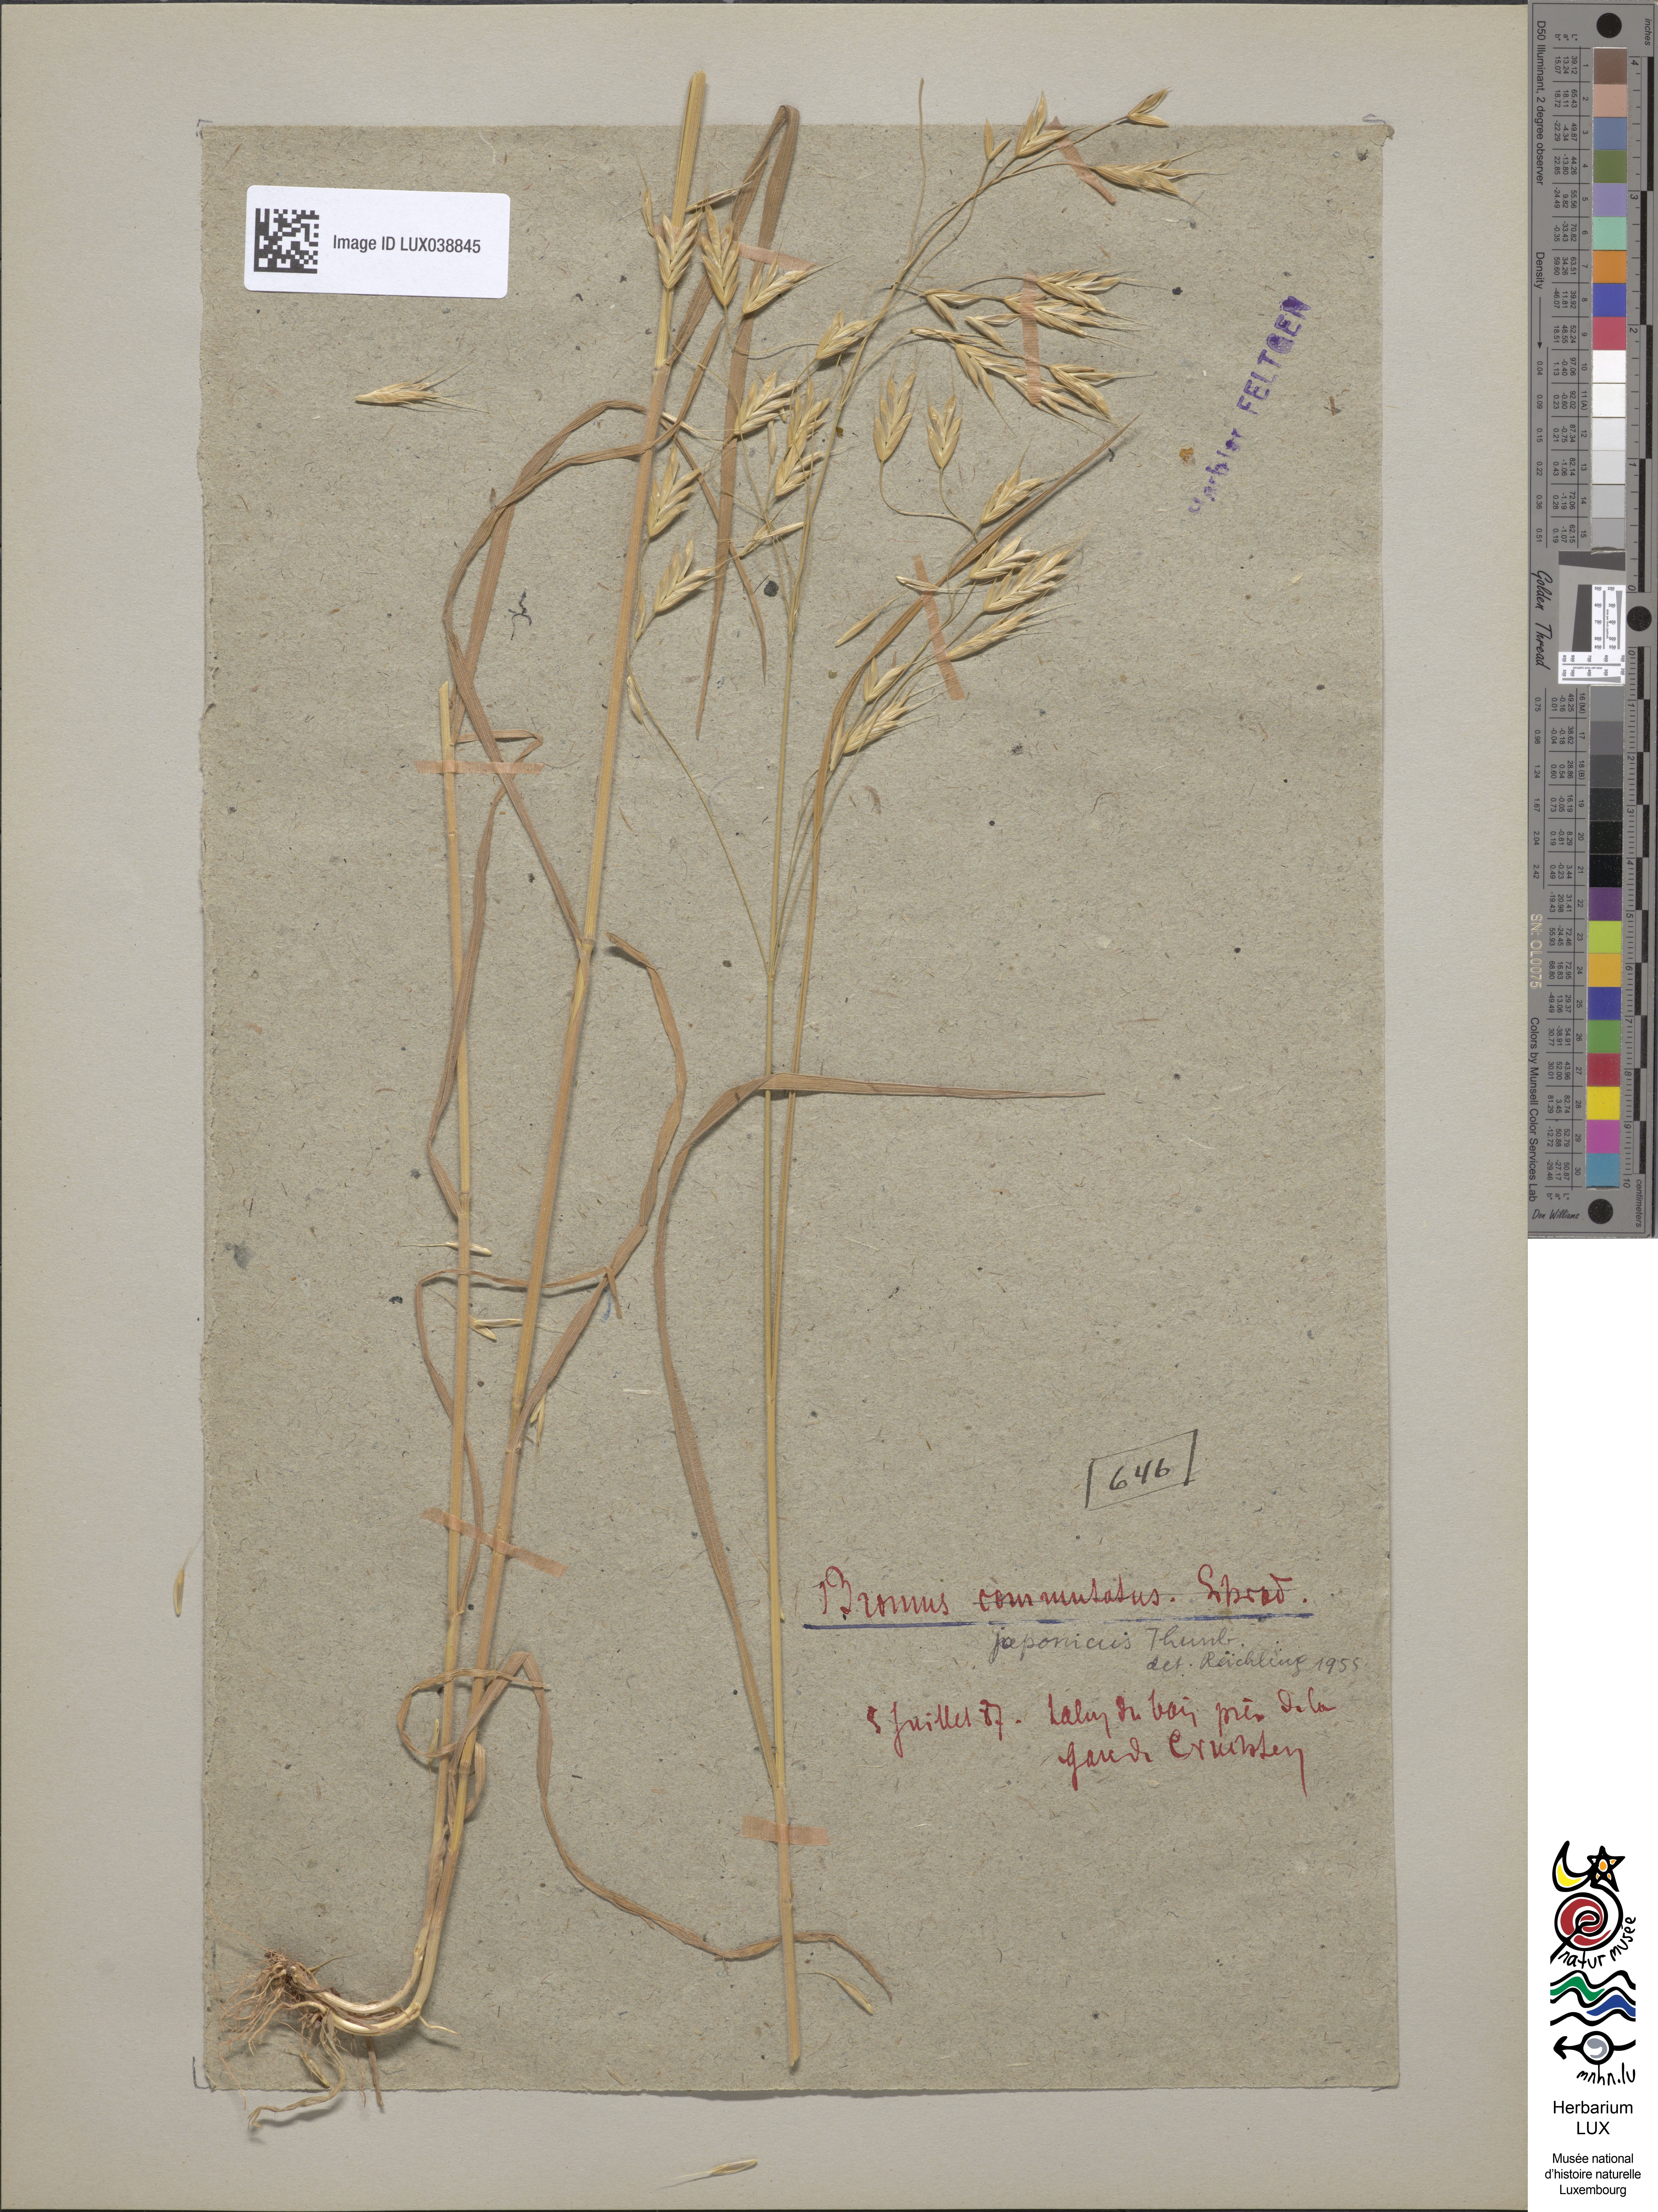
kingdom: Plantae
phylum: Tracheophyta
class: Liliopsida
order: Poales
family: Poaceae
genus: Bromus
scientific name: Bromus commutatus
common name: Meadow brome
